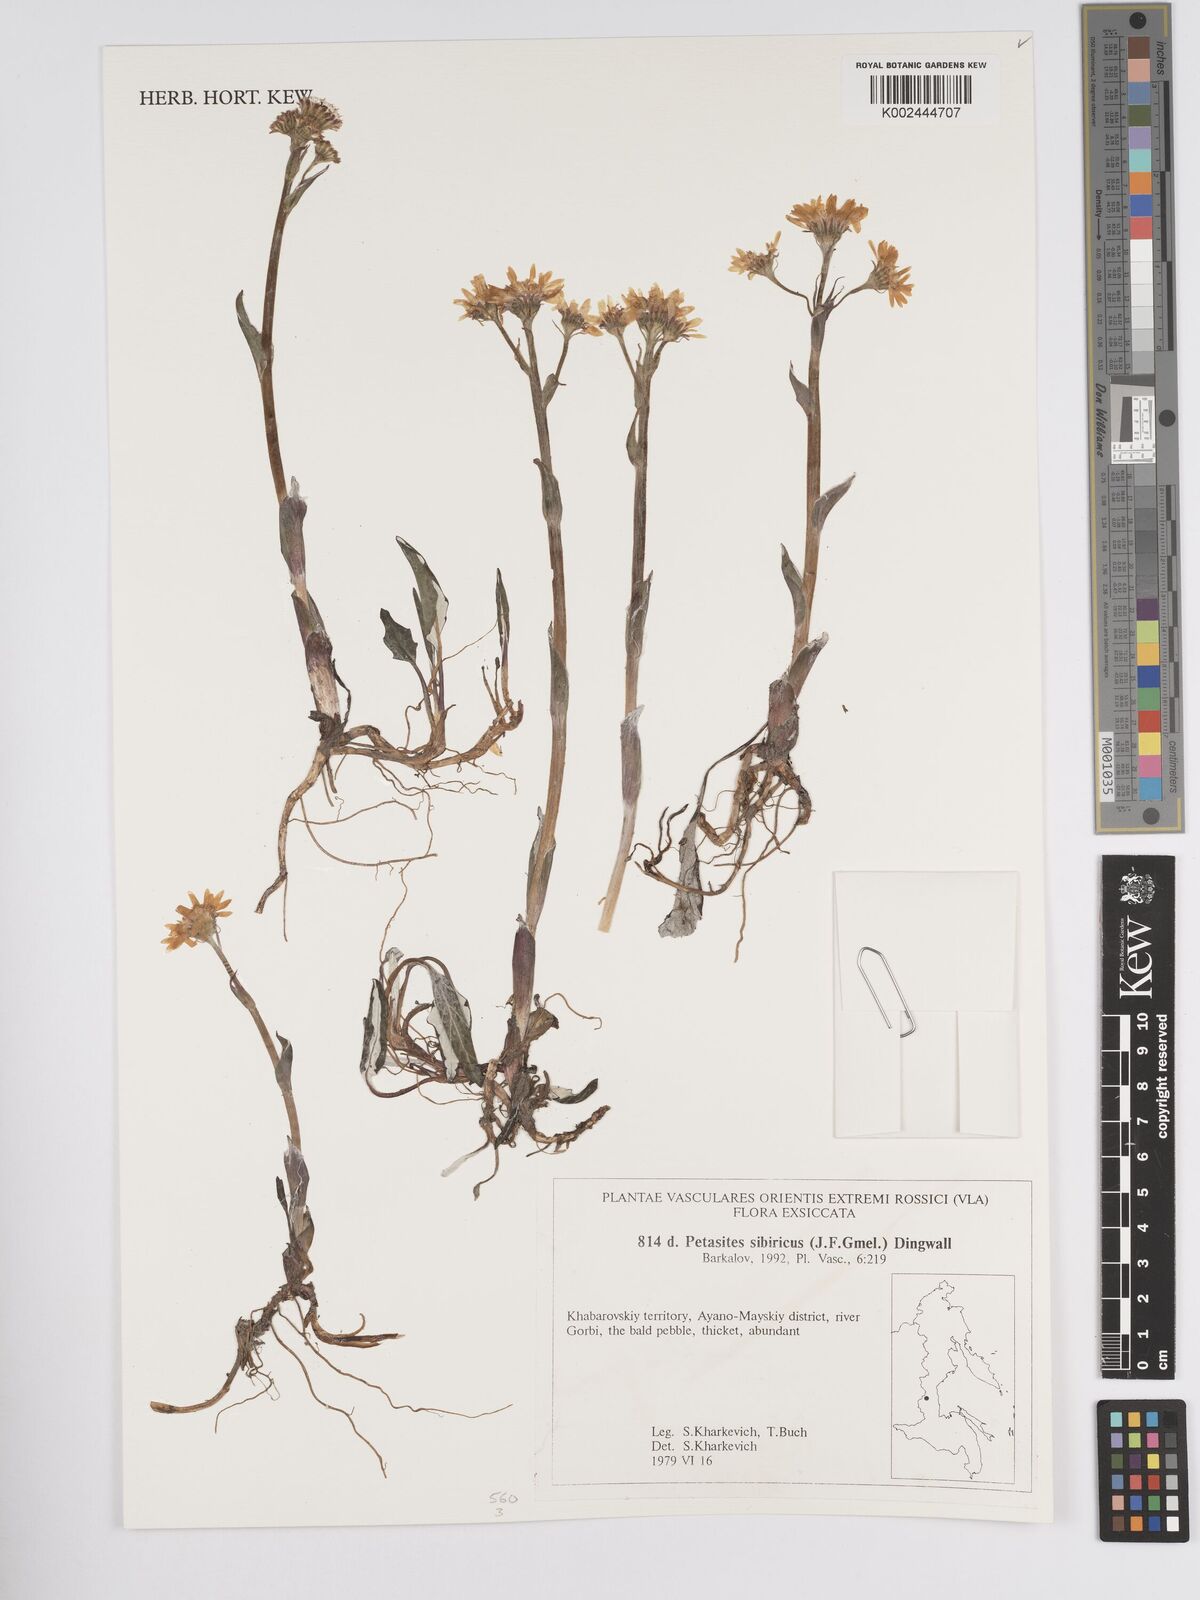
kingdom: Plantae
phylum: Tracheophyta
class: Magnoliopsida
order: Asterales
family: Asteraceae
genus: Endocellion
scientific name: Endocellion sibiricum
